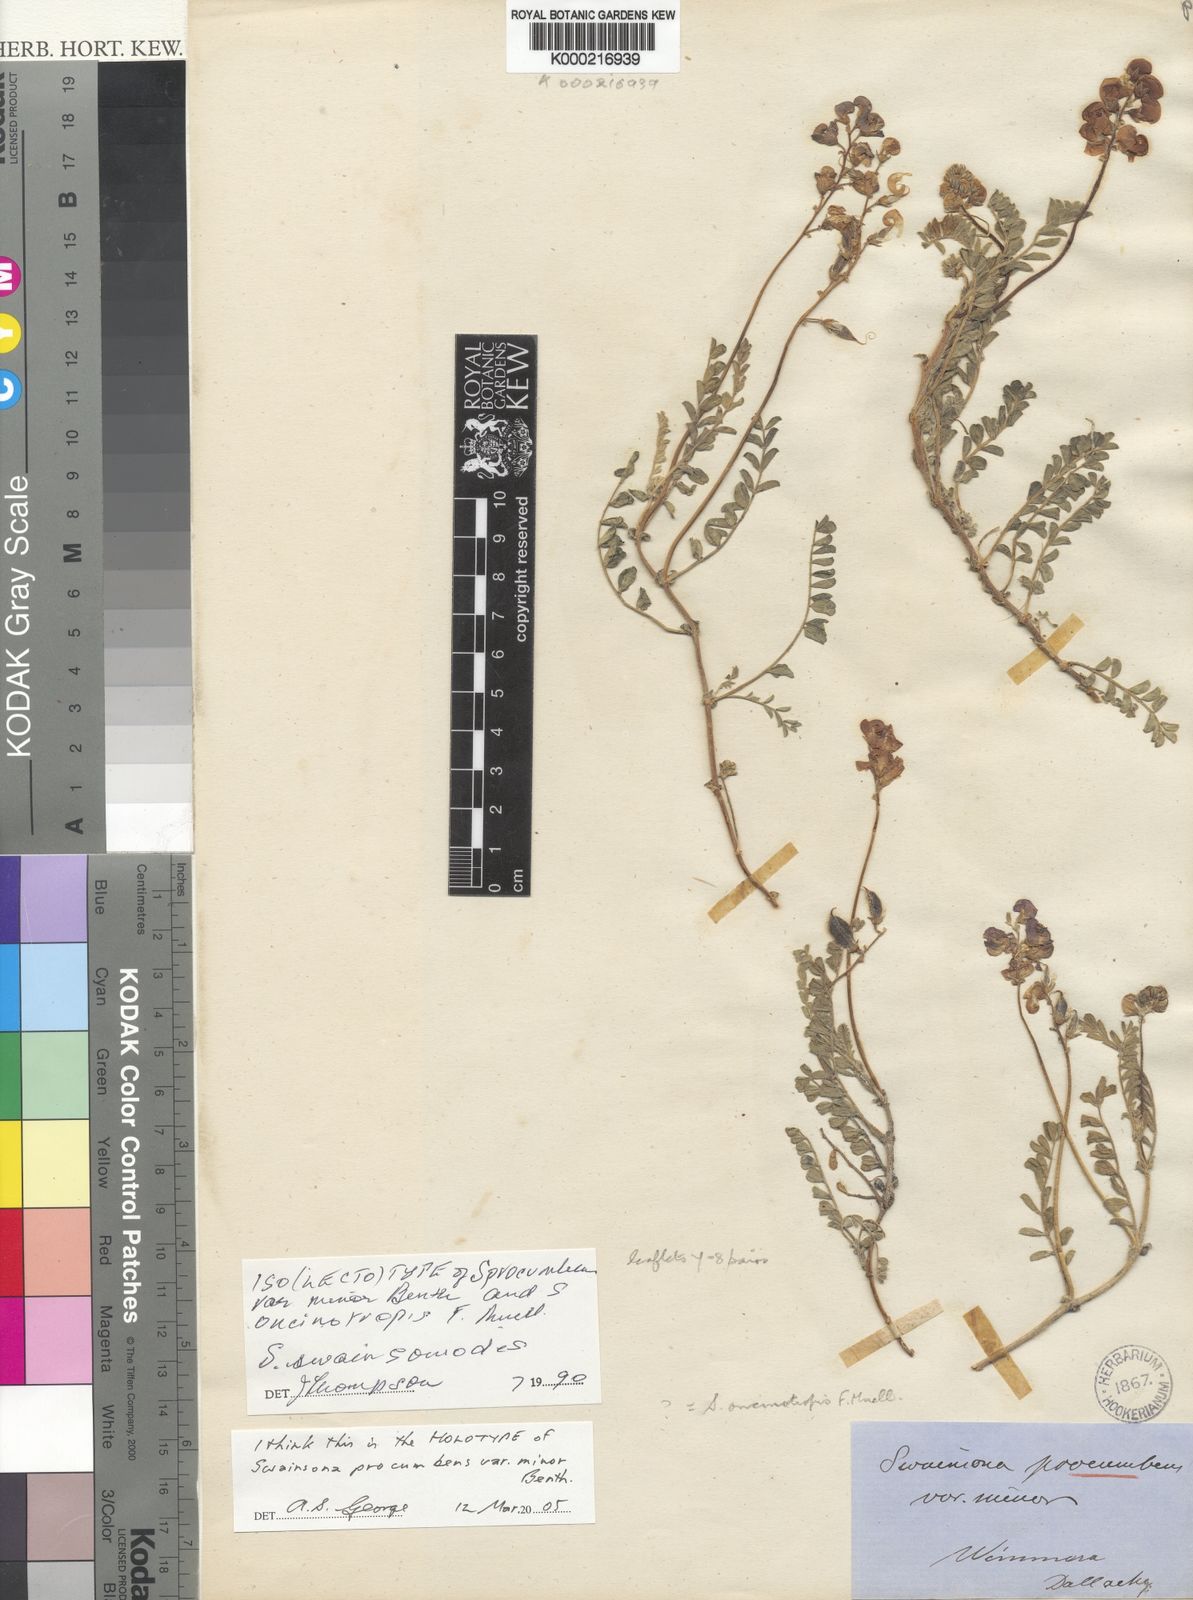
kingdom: Plantae
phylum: Tracheophyta
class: Magnoliopsida
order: Fabales
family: Fabaceae
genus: Swainsona
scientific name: Swainsona
